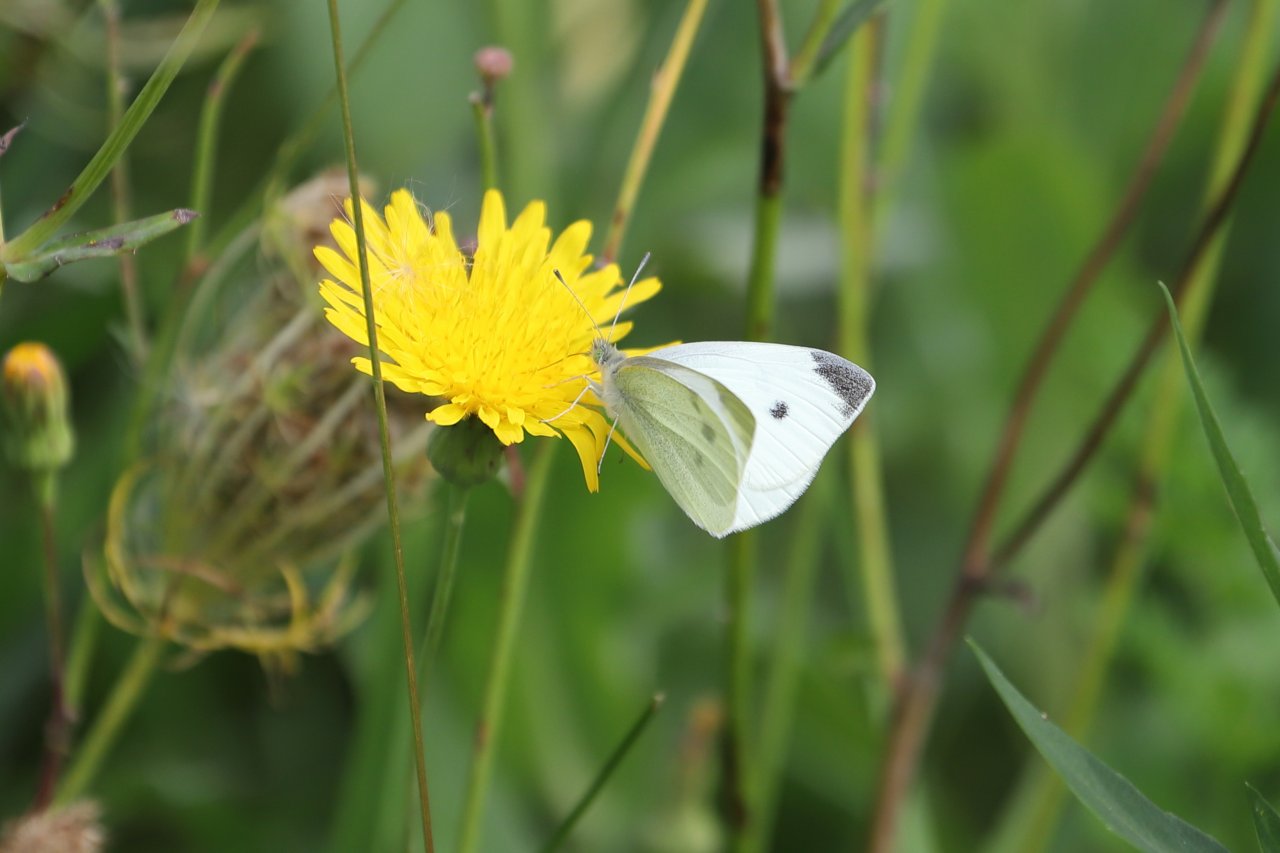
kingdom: Animalia
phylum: Arthropoda
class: Insecta
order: Lepidoptera
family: Pieridae
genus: Pieris
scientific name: Pieris rapae
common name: Cabbage White
